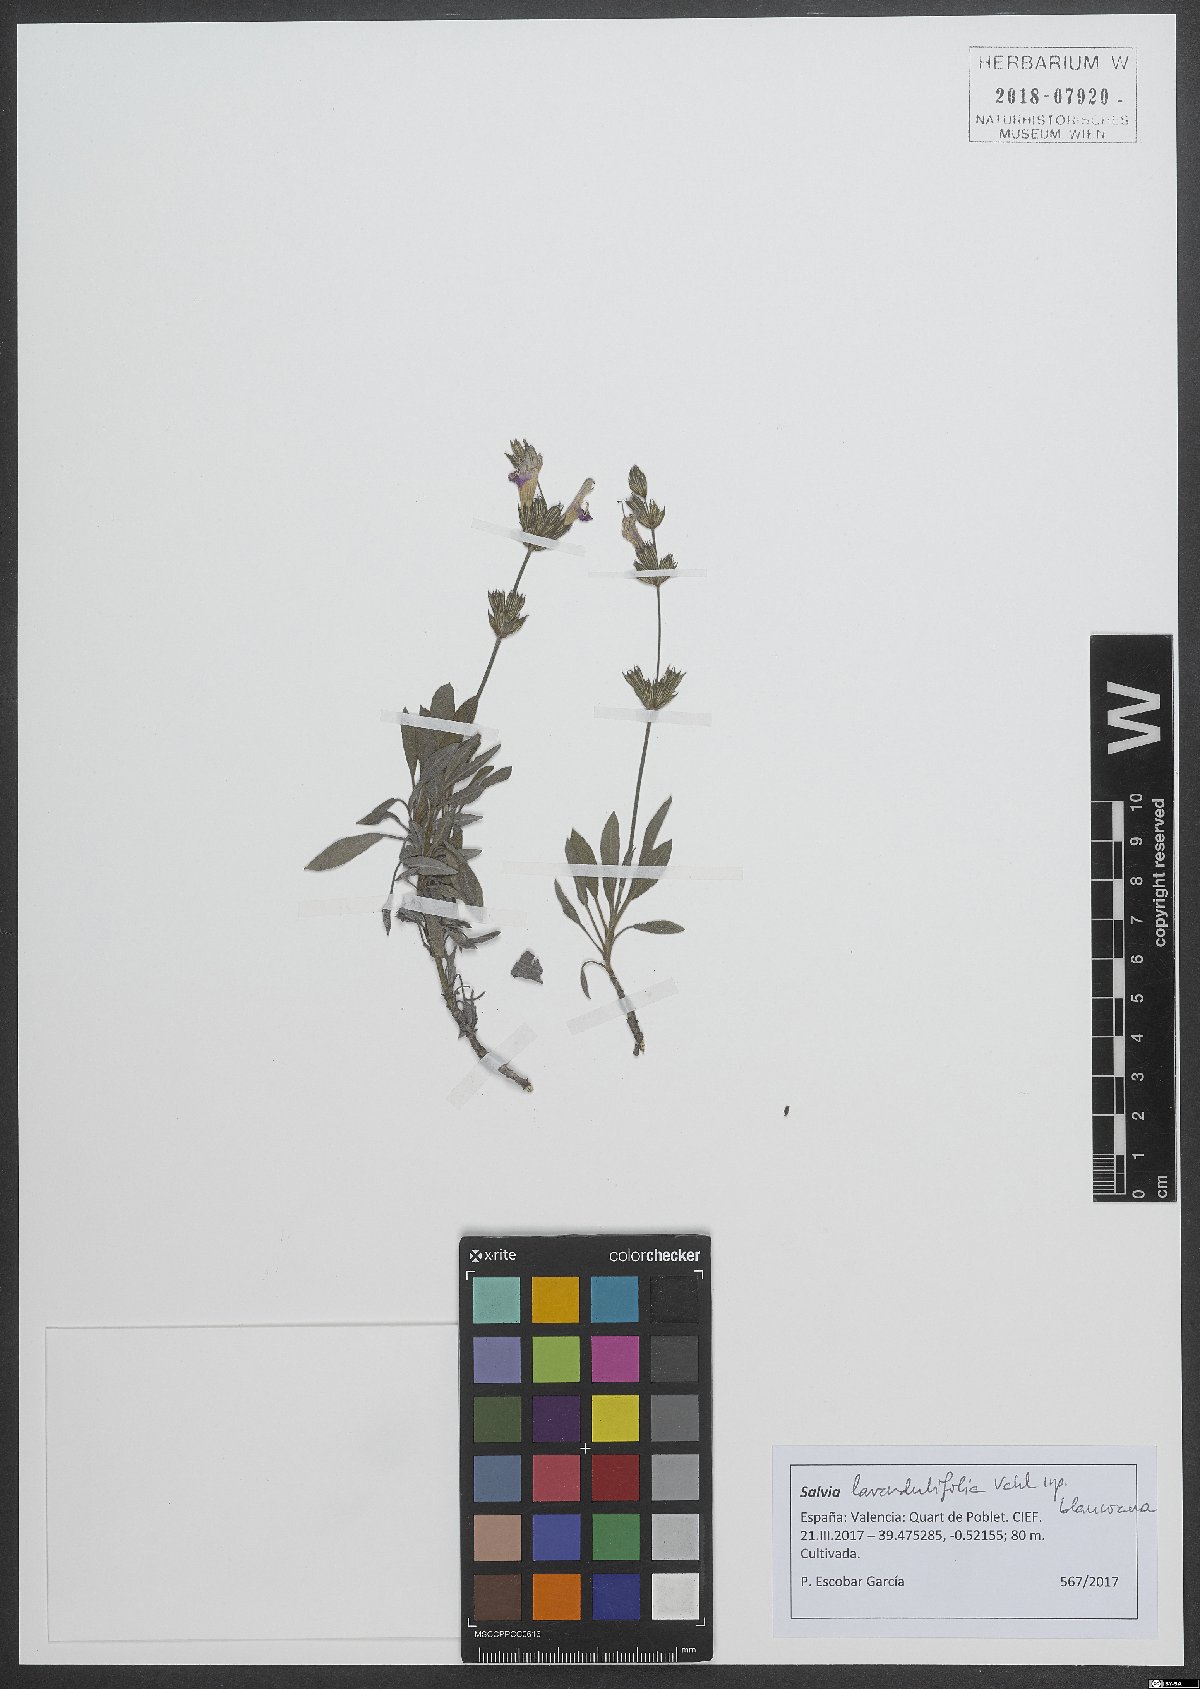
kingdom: Plantae
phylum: Tracheophyta
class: Magnoliopsida
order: Lamiales
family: Lamiaceae
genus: Salvia
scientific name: Salvia blancoana
